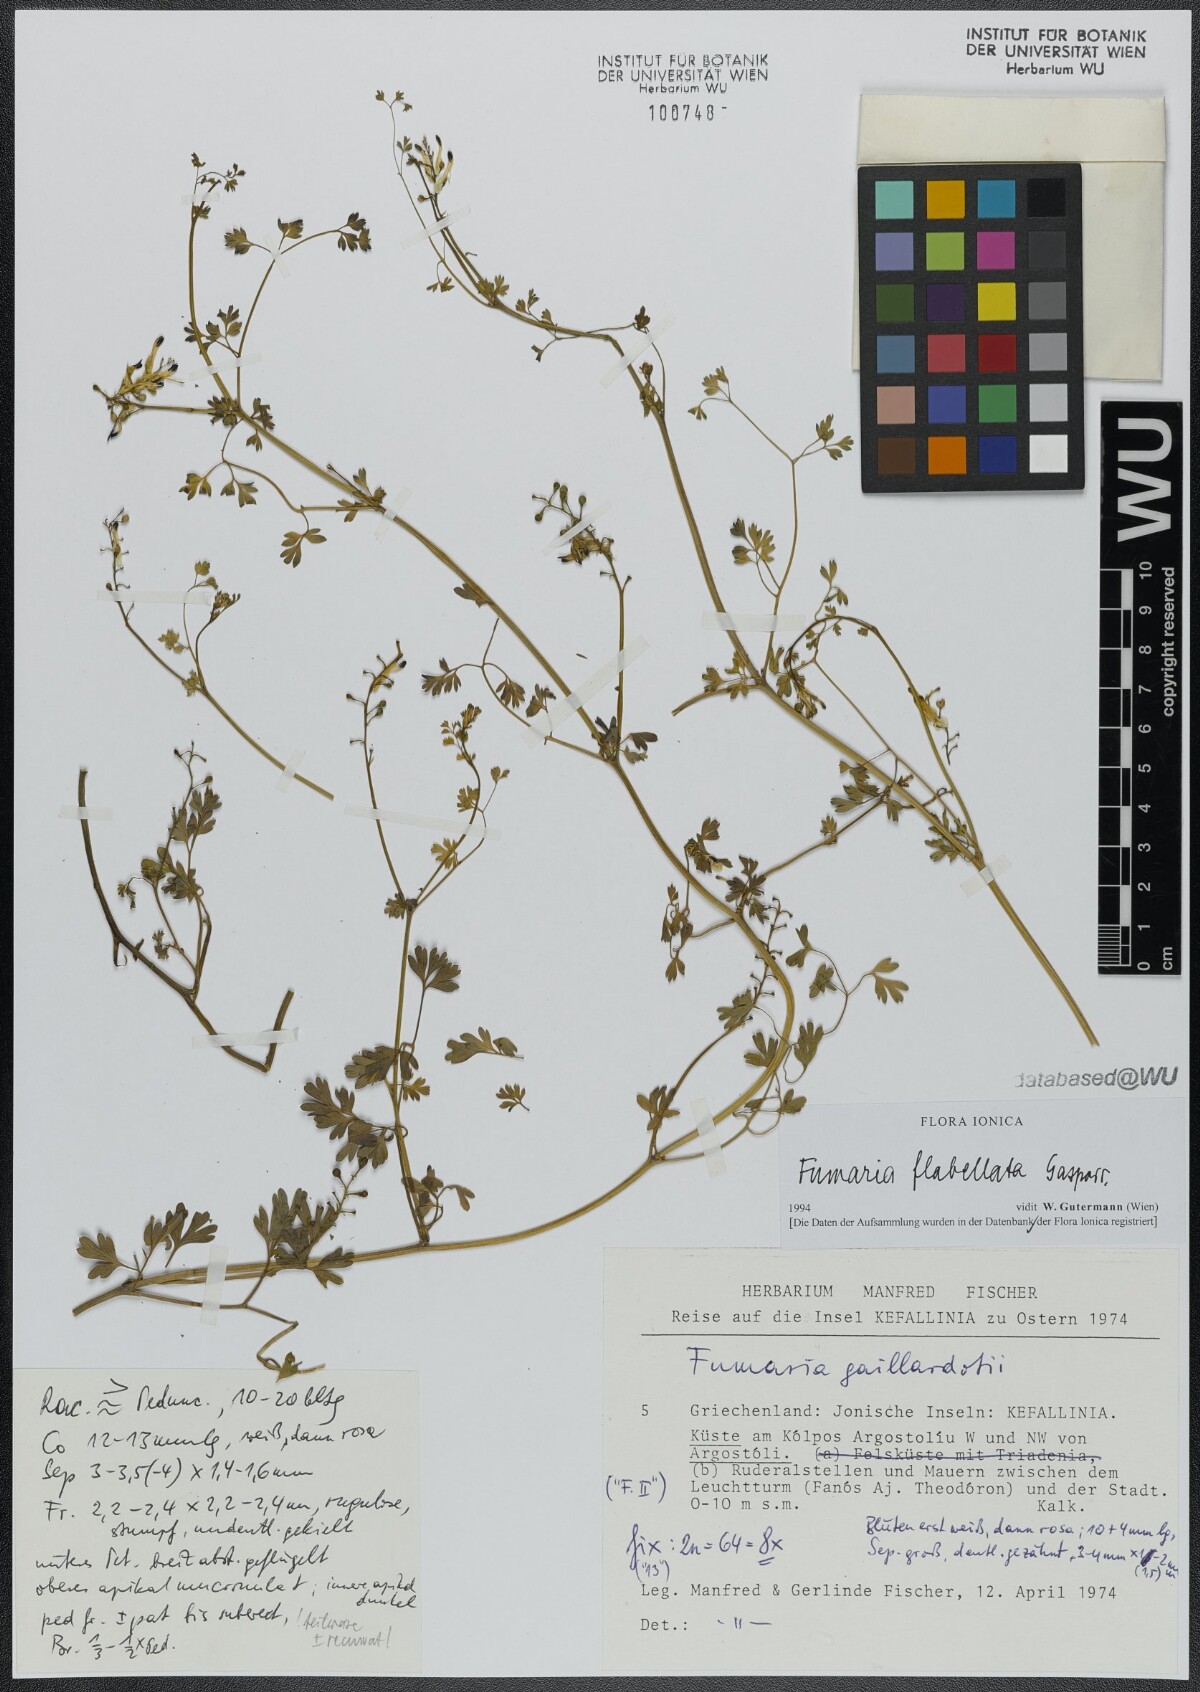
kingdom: Plantae
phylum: Tracheophyta
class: Magnoliopsida
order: Ranunculales
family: Papaveraceae
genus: Fumaria
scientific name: Fumaria flabellata
